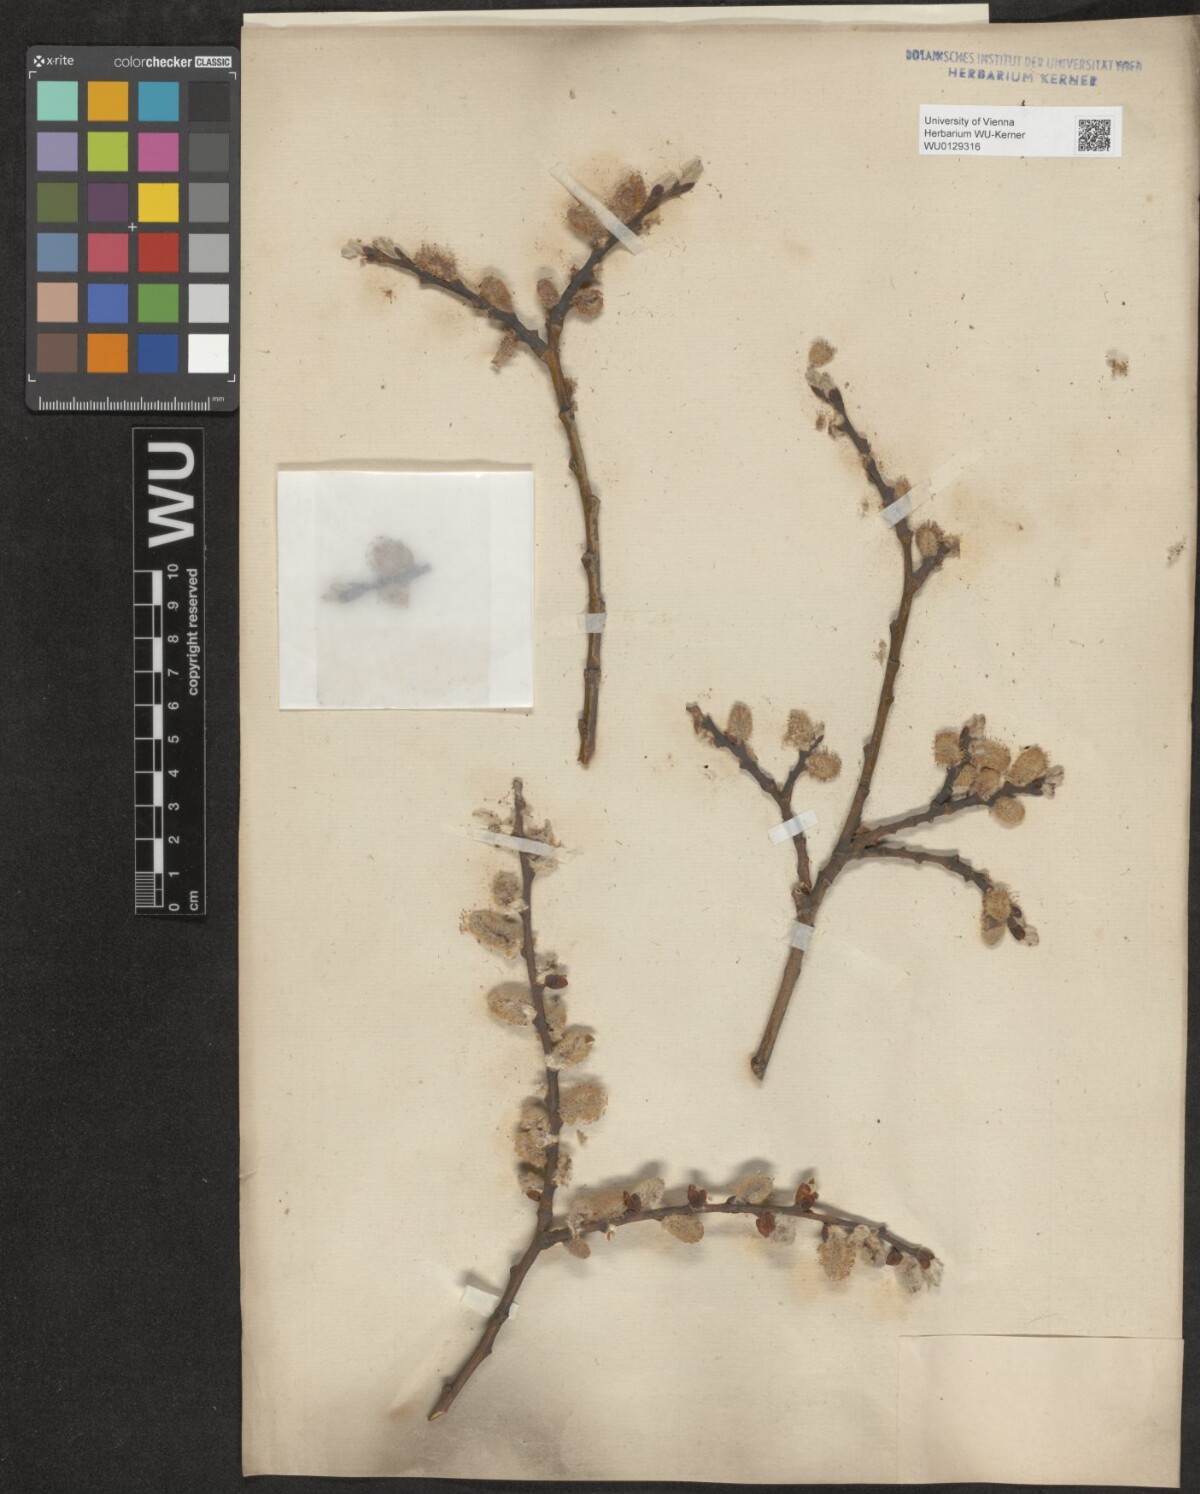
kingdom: Plantae
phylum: Tracheophyta
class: Magnoliopsida
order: Malpighiales
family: Salicaceae
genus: Salix
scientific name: Salix appendiculata
